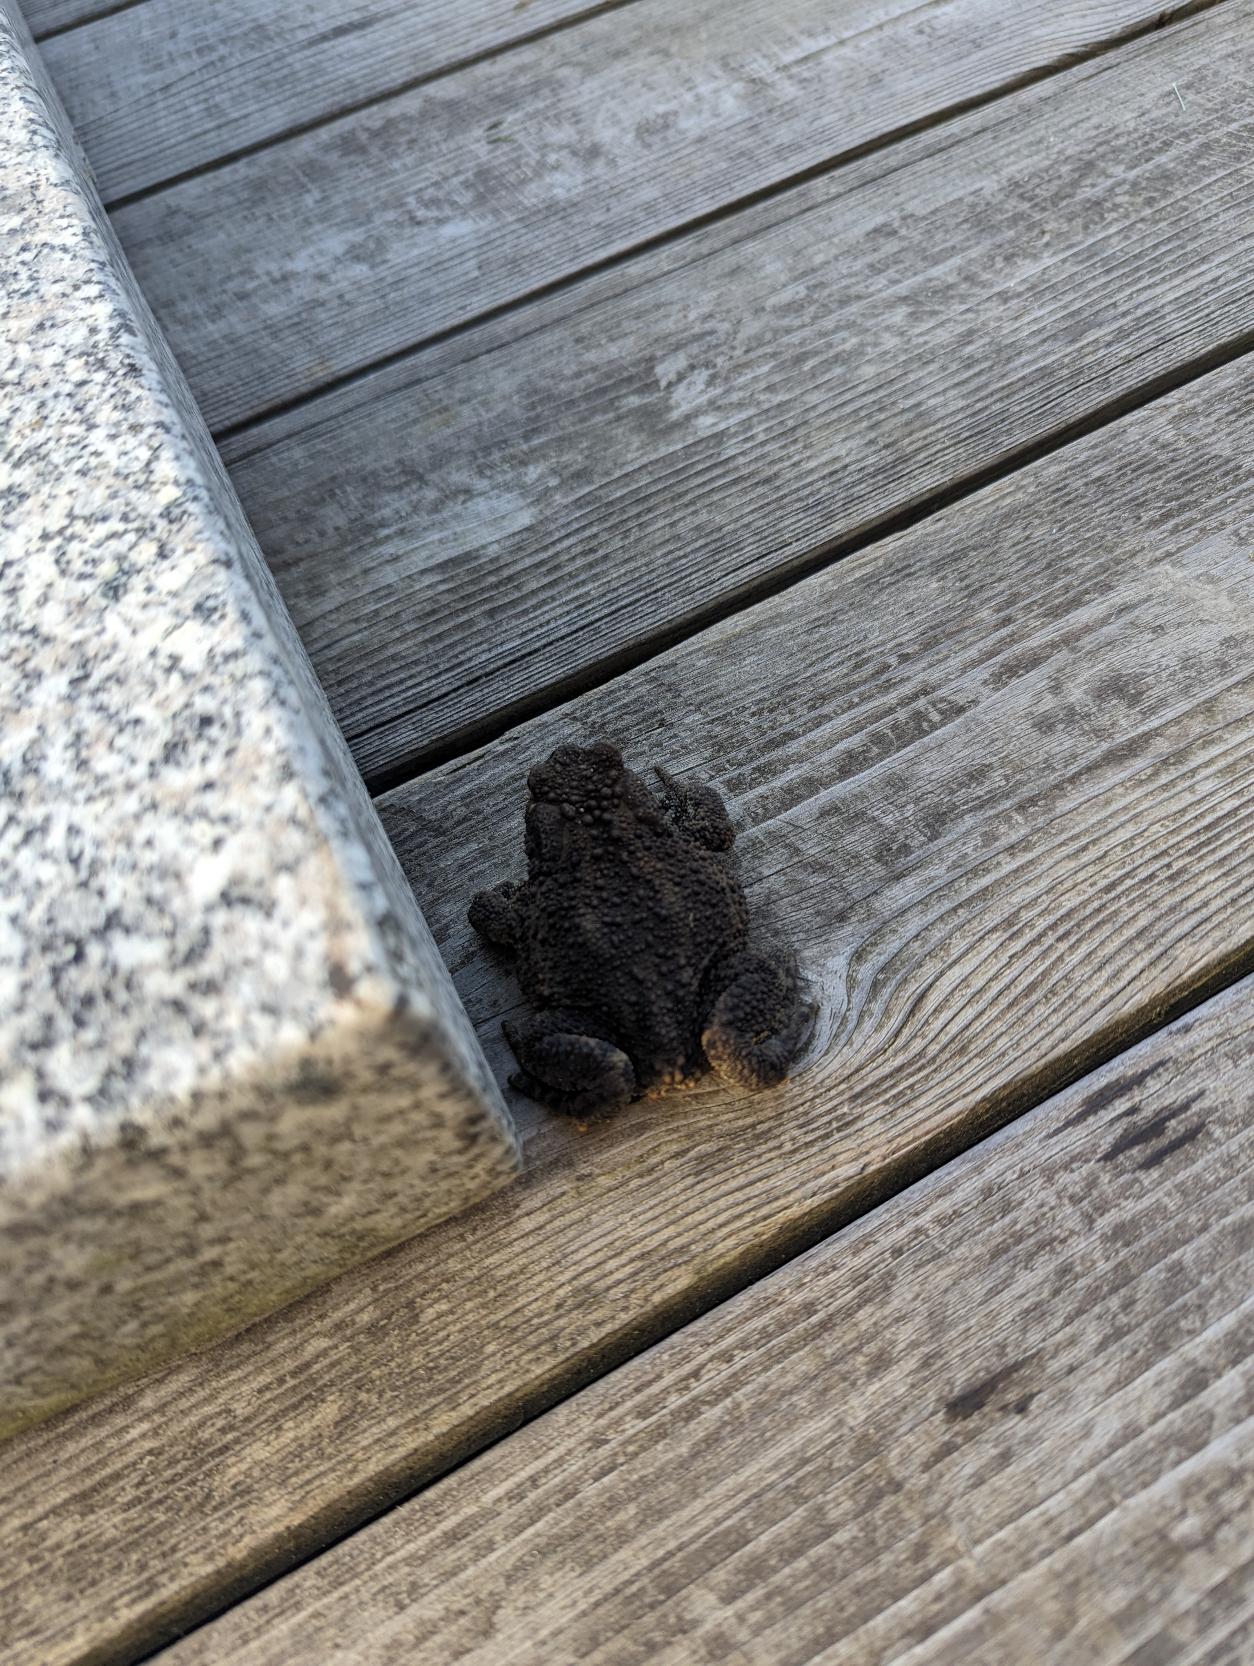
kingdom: Animalia
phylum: Chordata
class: Amphibia
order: Anura
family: Bufonidae
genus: Bufo
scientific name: Bufo bufo
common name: Skrubtudse
